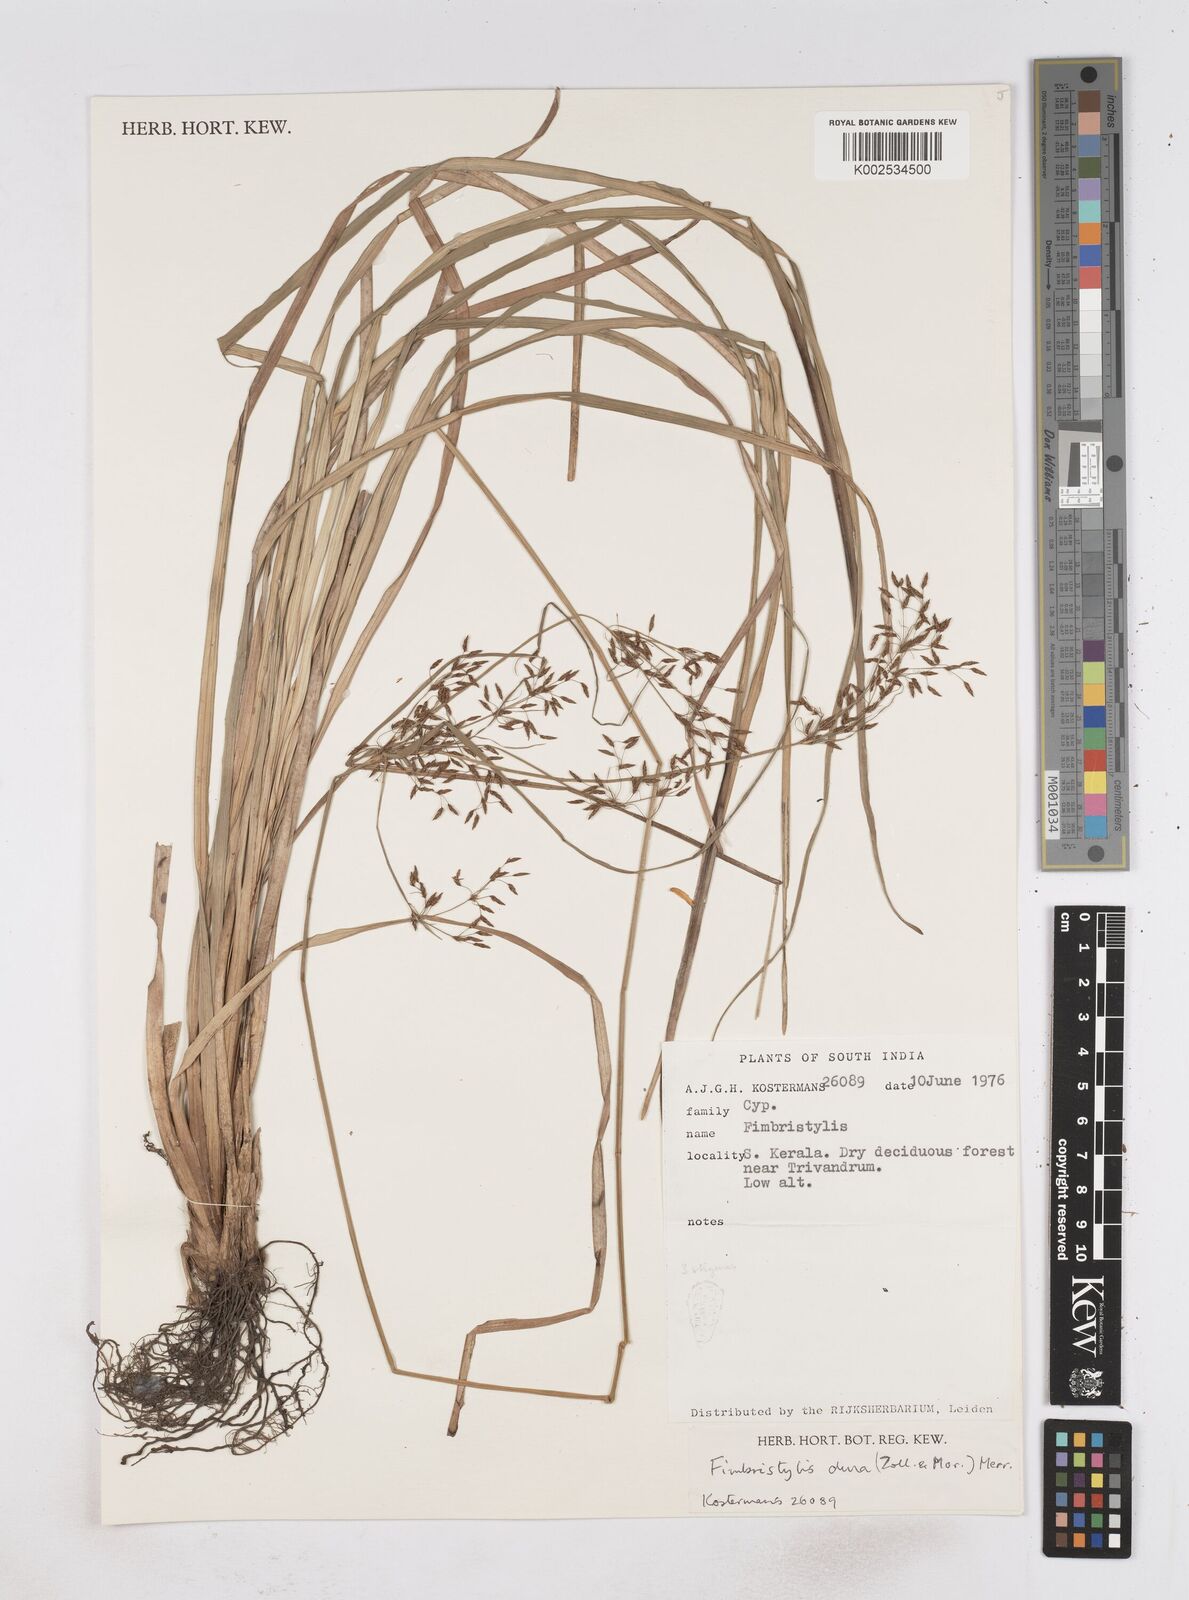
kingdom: Plantae
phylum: Tracheophyta
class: Liliopsida
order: Poales
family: Cyperaceae
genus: Fimbristylis
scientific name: Fimbristylis dura
